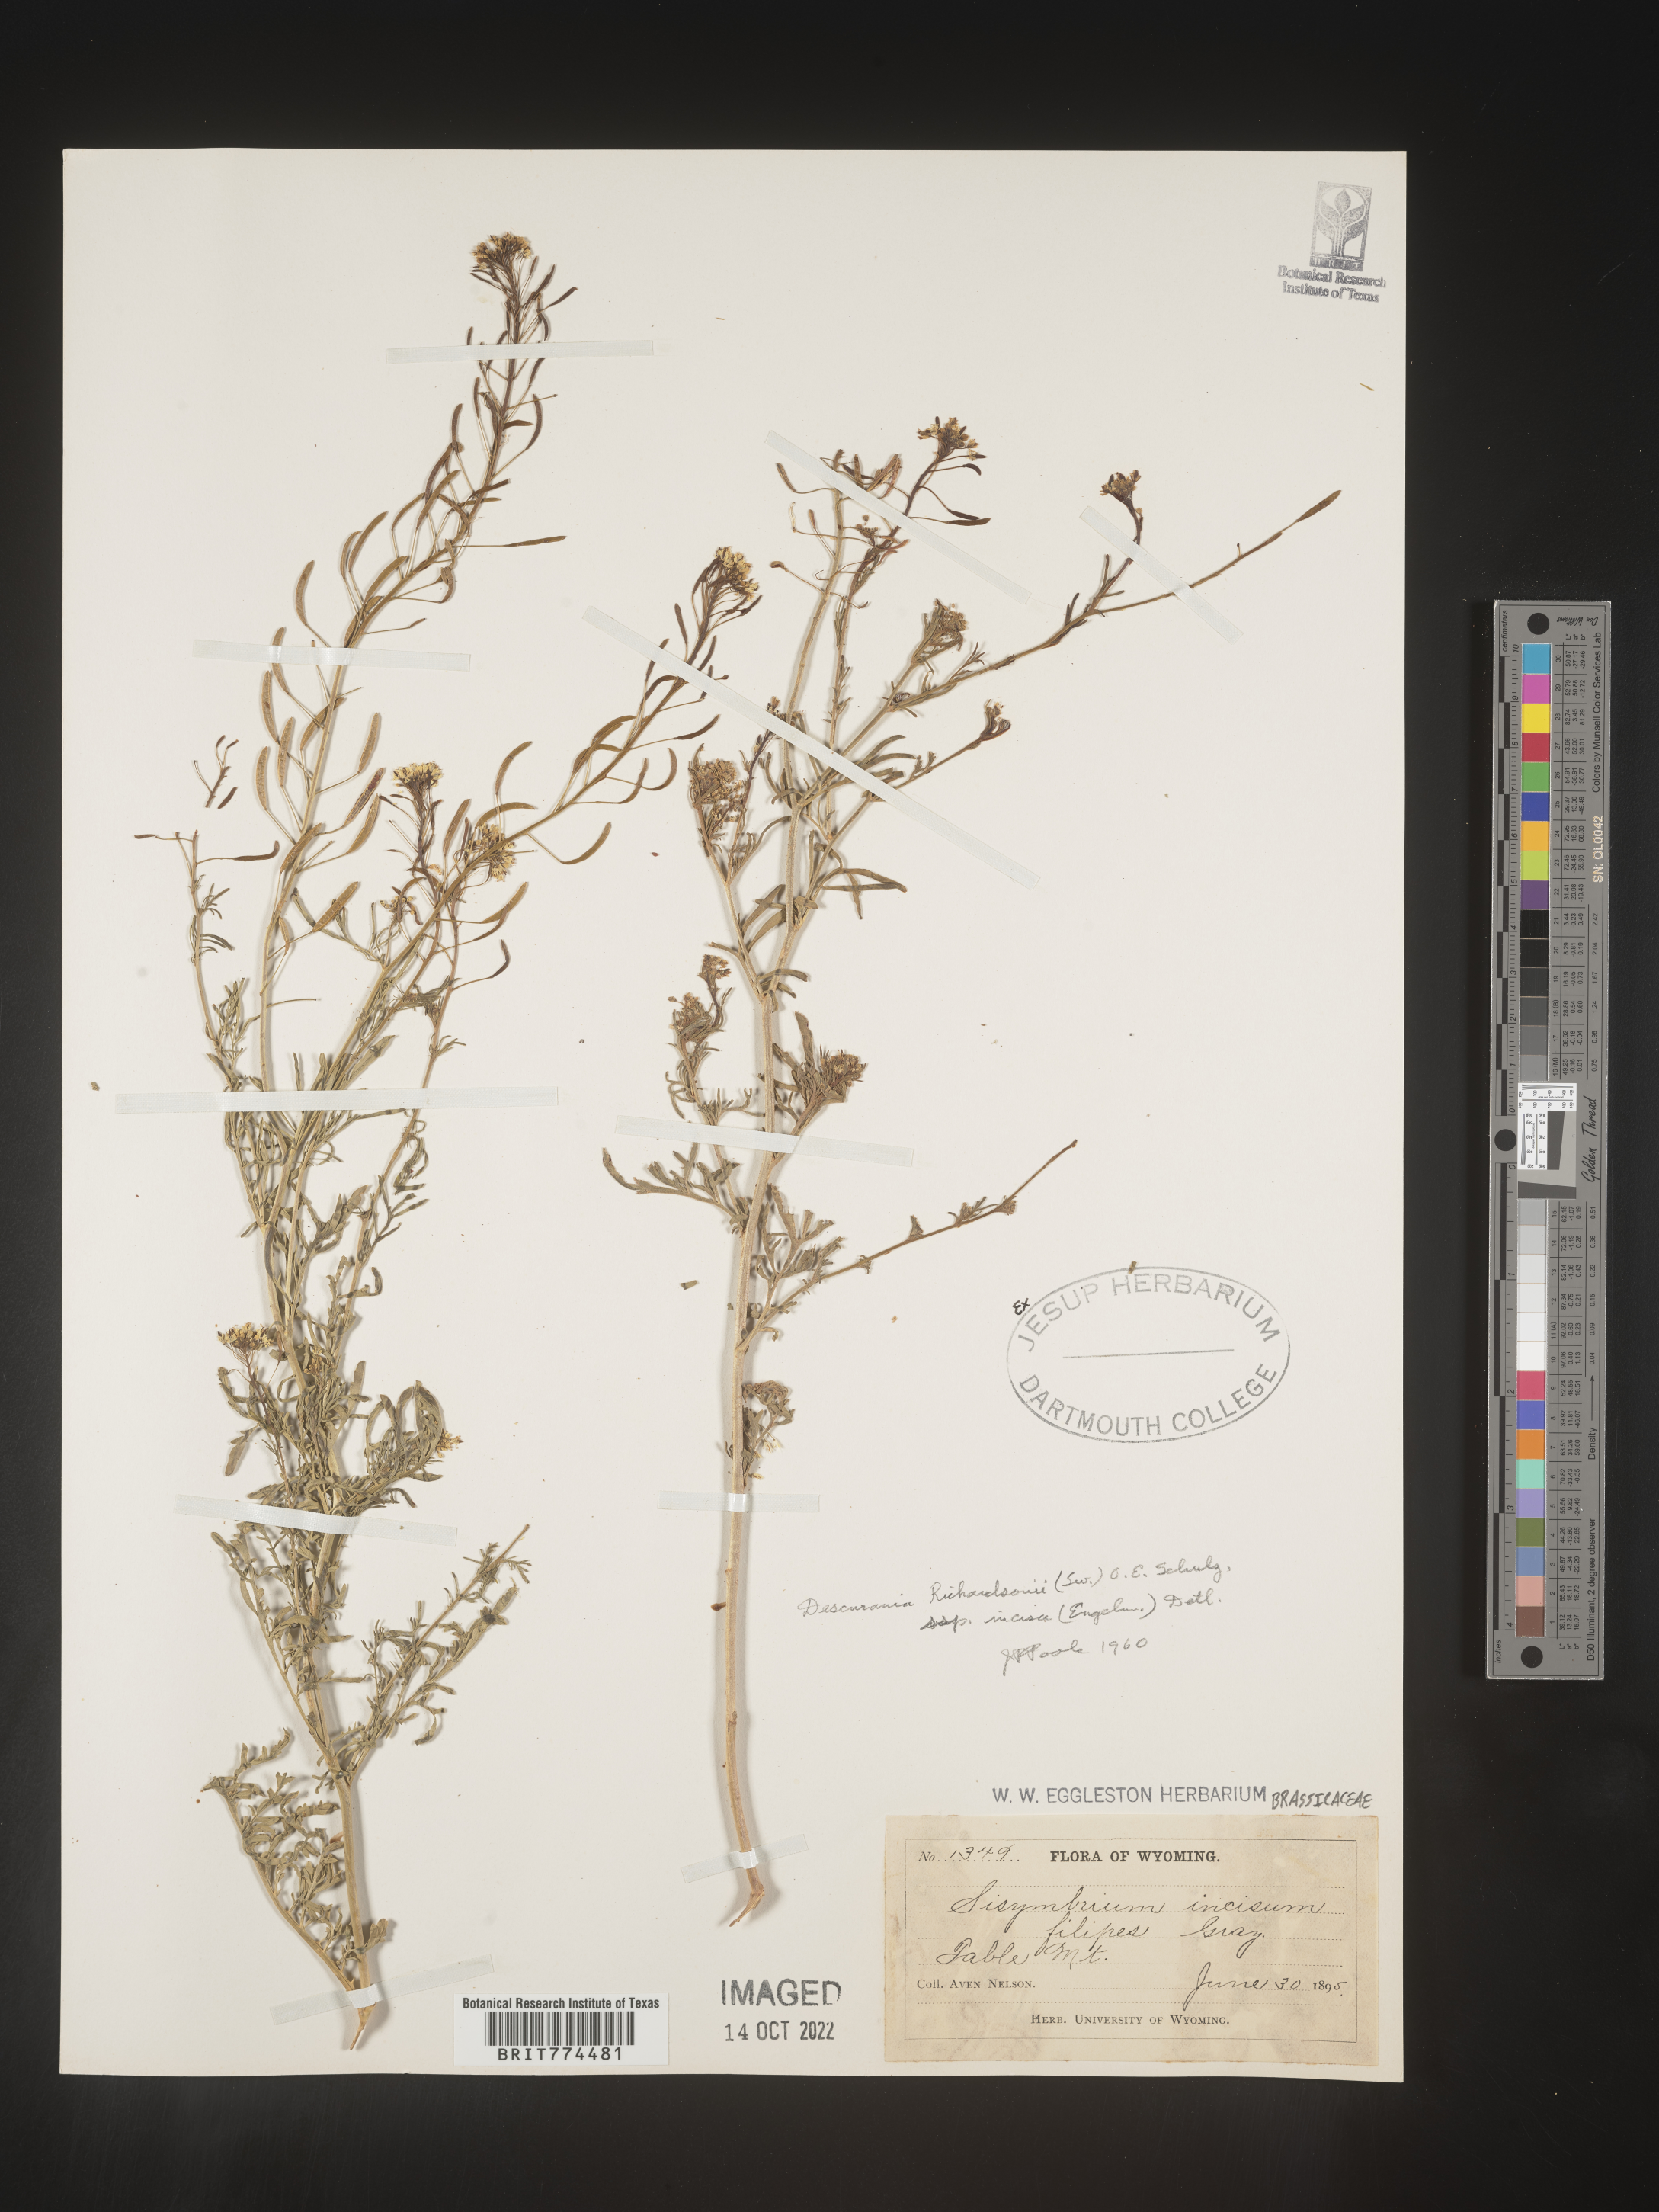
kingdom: Plantae
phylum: Tracheophyta
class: Magnoliopsida
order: Brassicales
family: Brassicaceae
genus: Descurainia
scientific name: Descurainia
